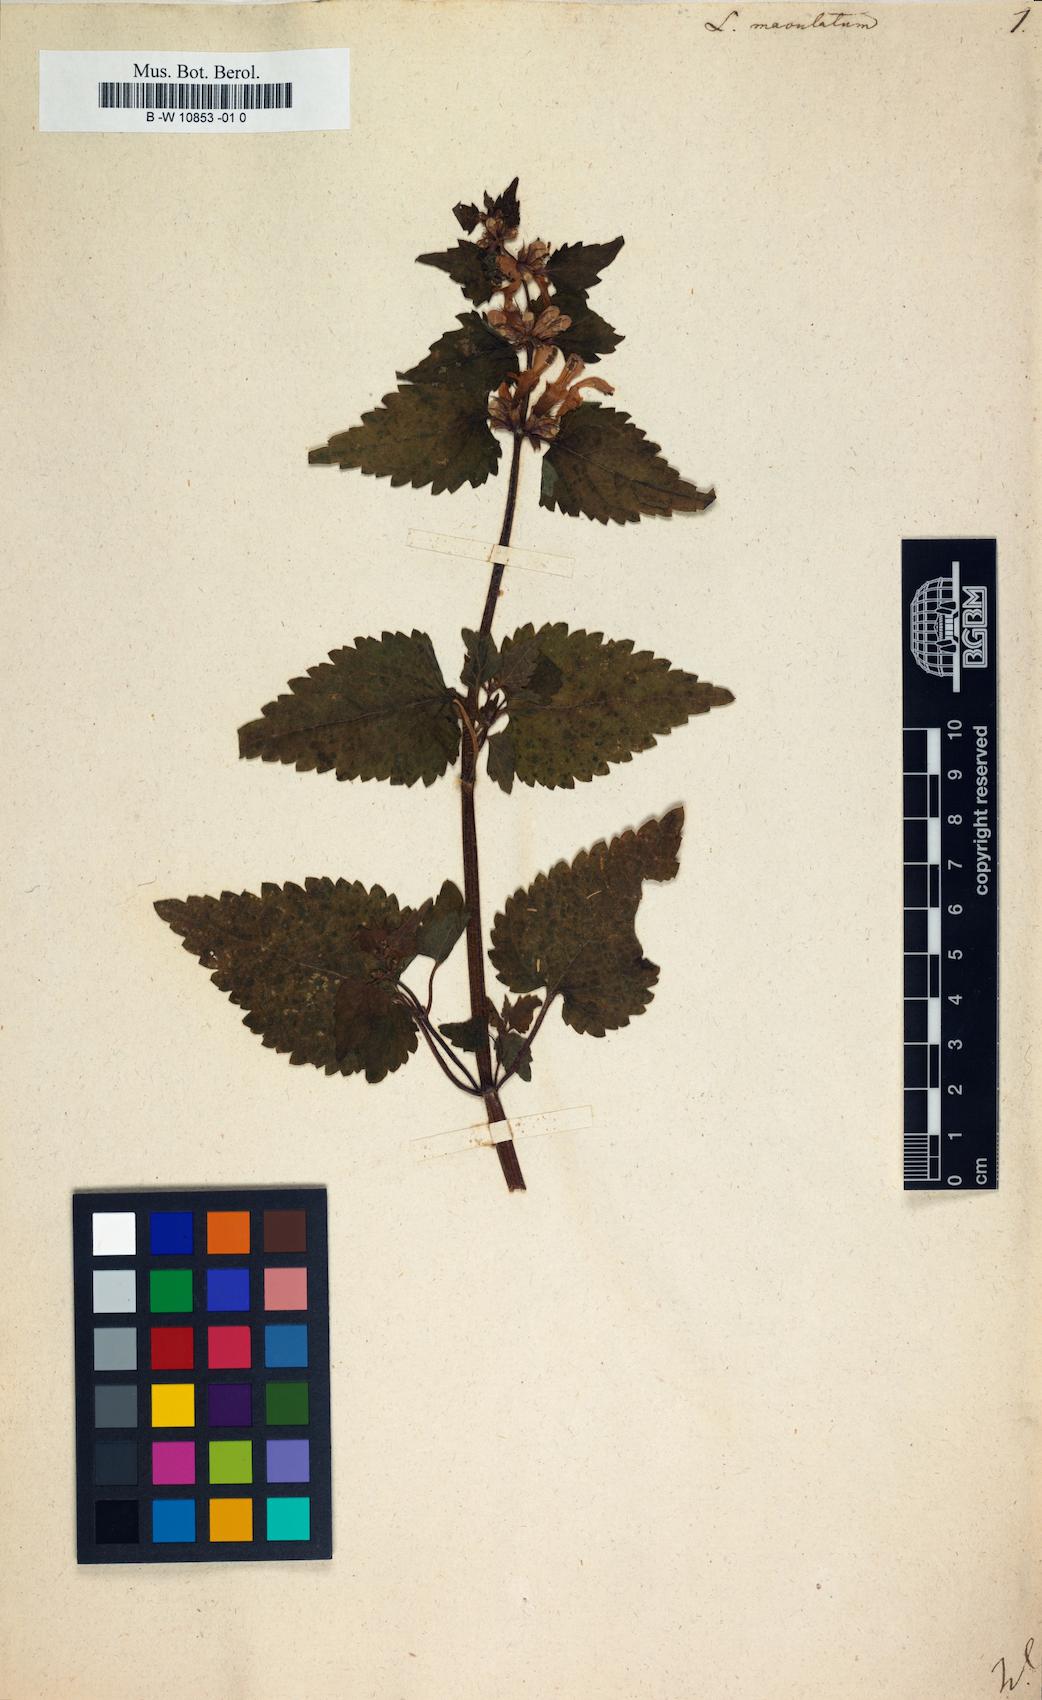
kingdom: Plantae
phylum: Tracheophyta
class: Magnoliopsida
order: Lamiales
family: Lamiaceae
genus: Lamium
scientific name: Lamium maculatum
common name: Spotted dead-nettle
